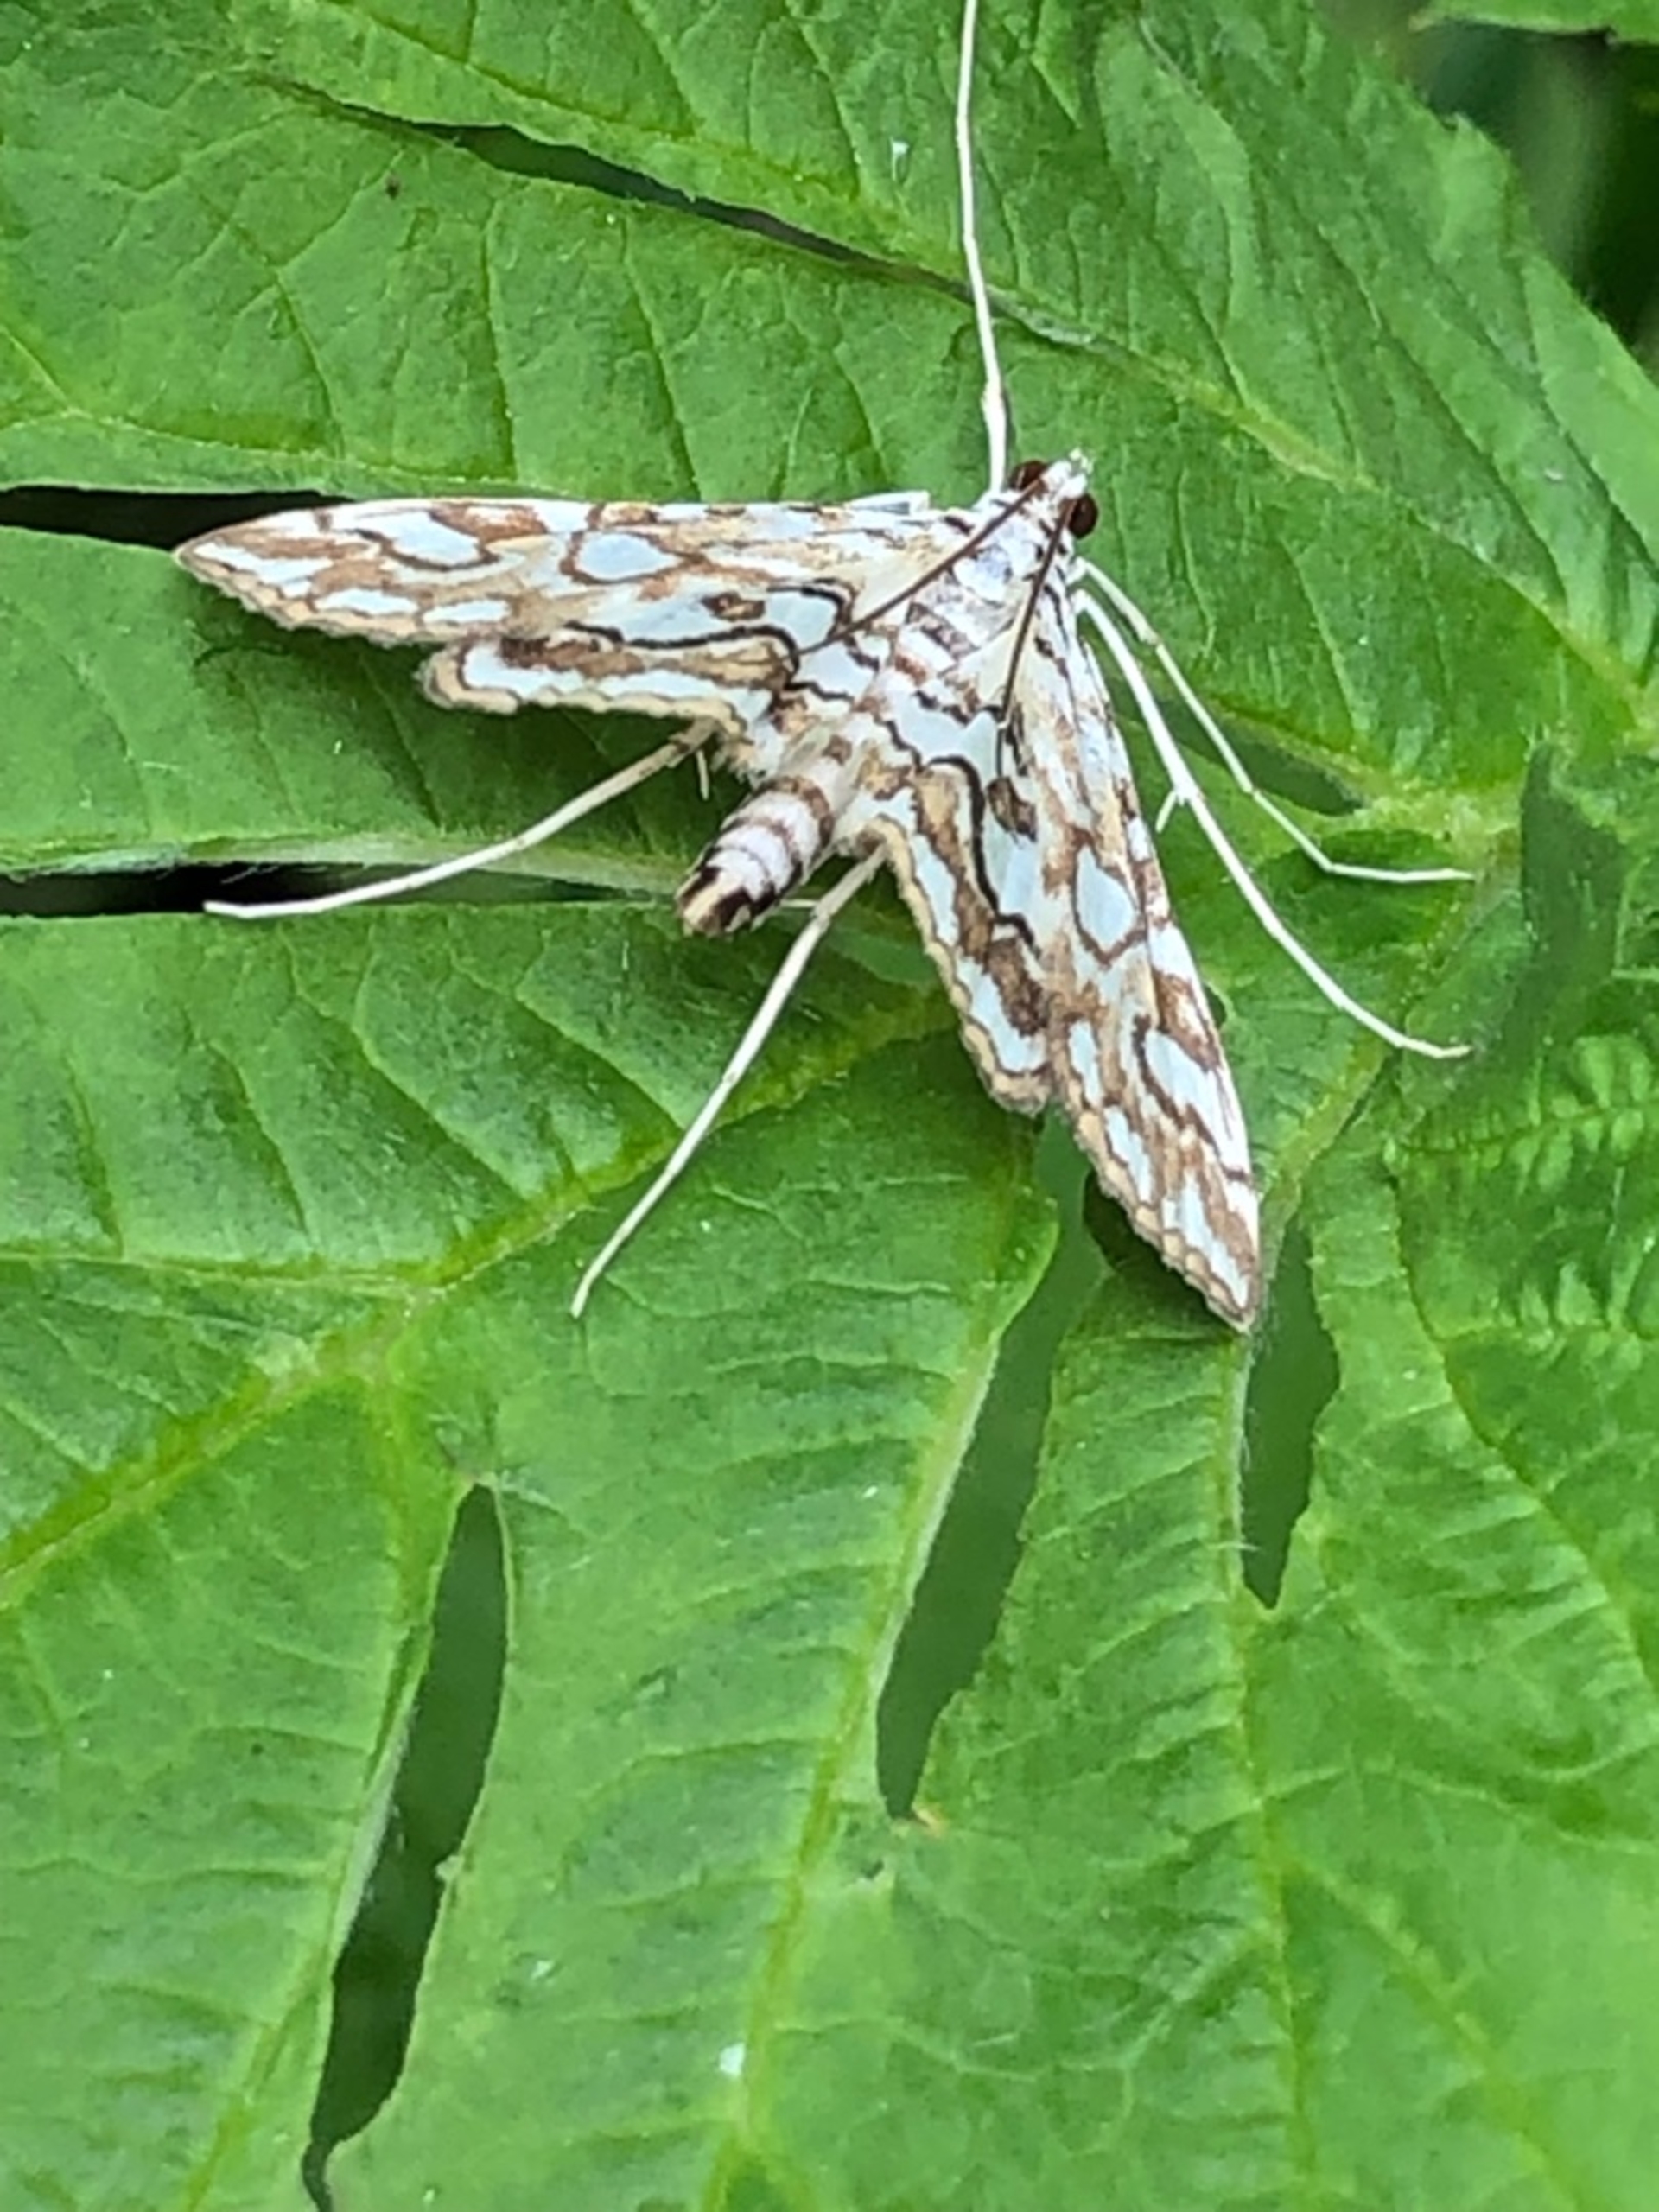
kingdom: Animalia
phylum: Arthropoda
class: Insecta
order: Lepidoptera
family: Crambidae
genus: Elophila
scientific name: Elophila nymphaeata
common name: Åkandehalvmøl
